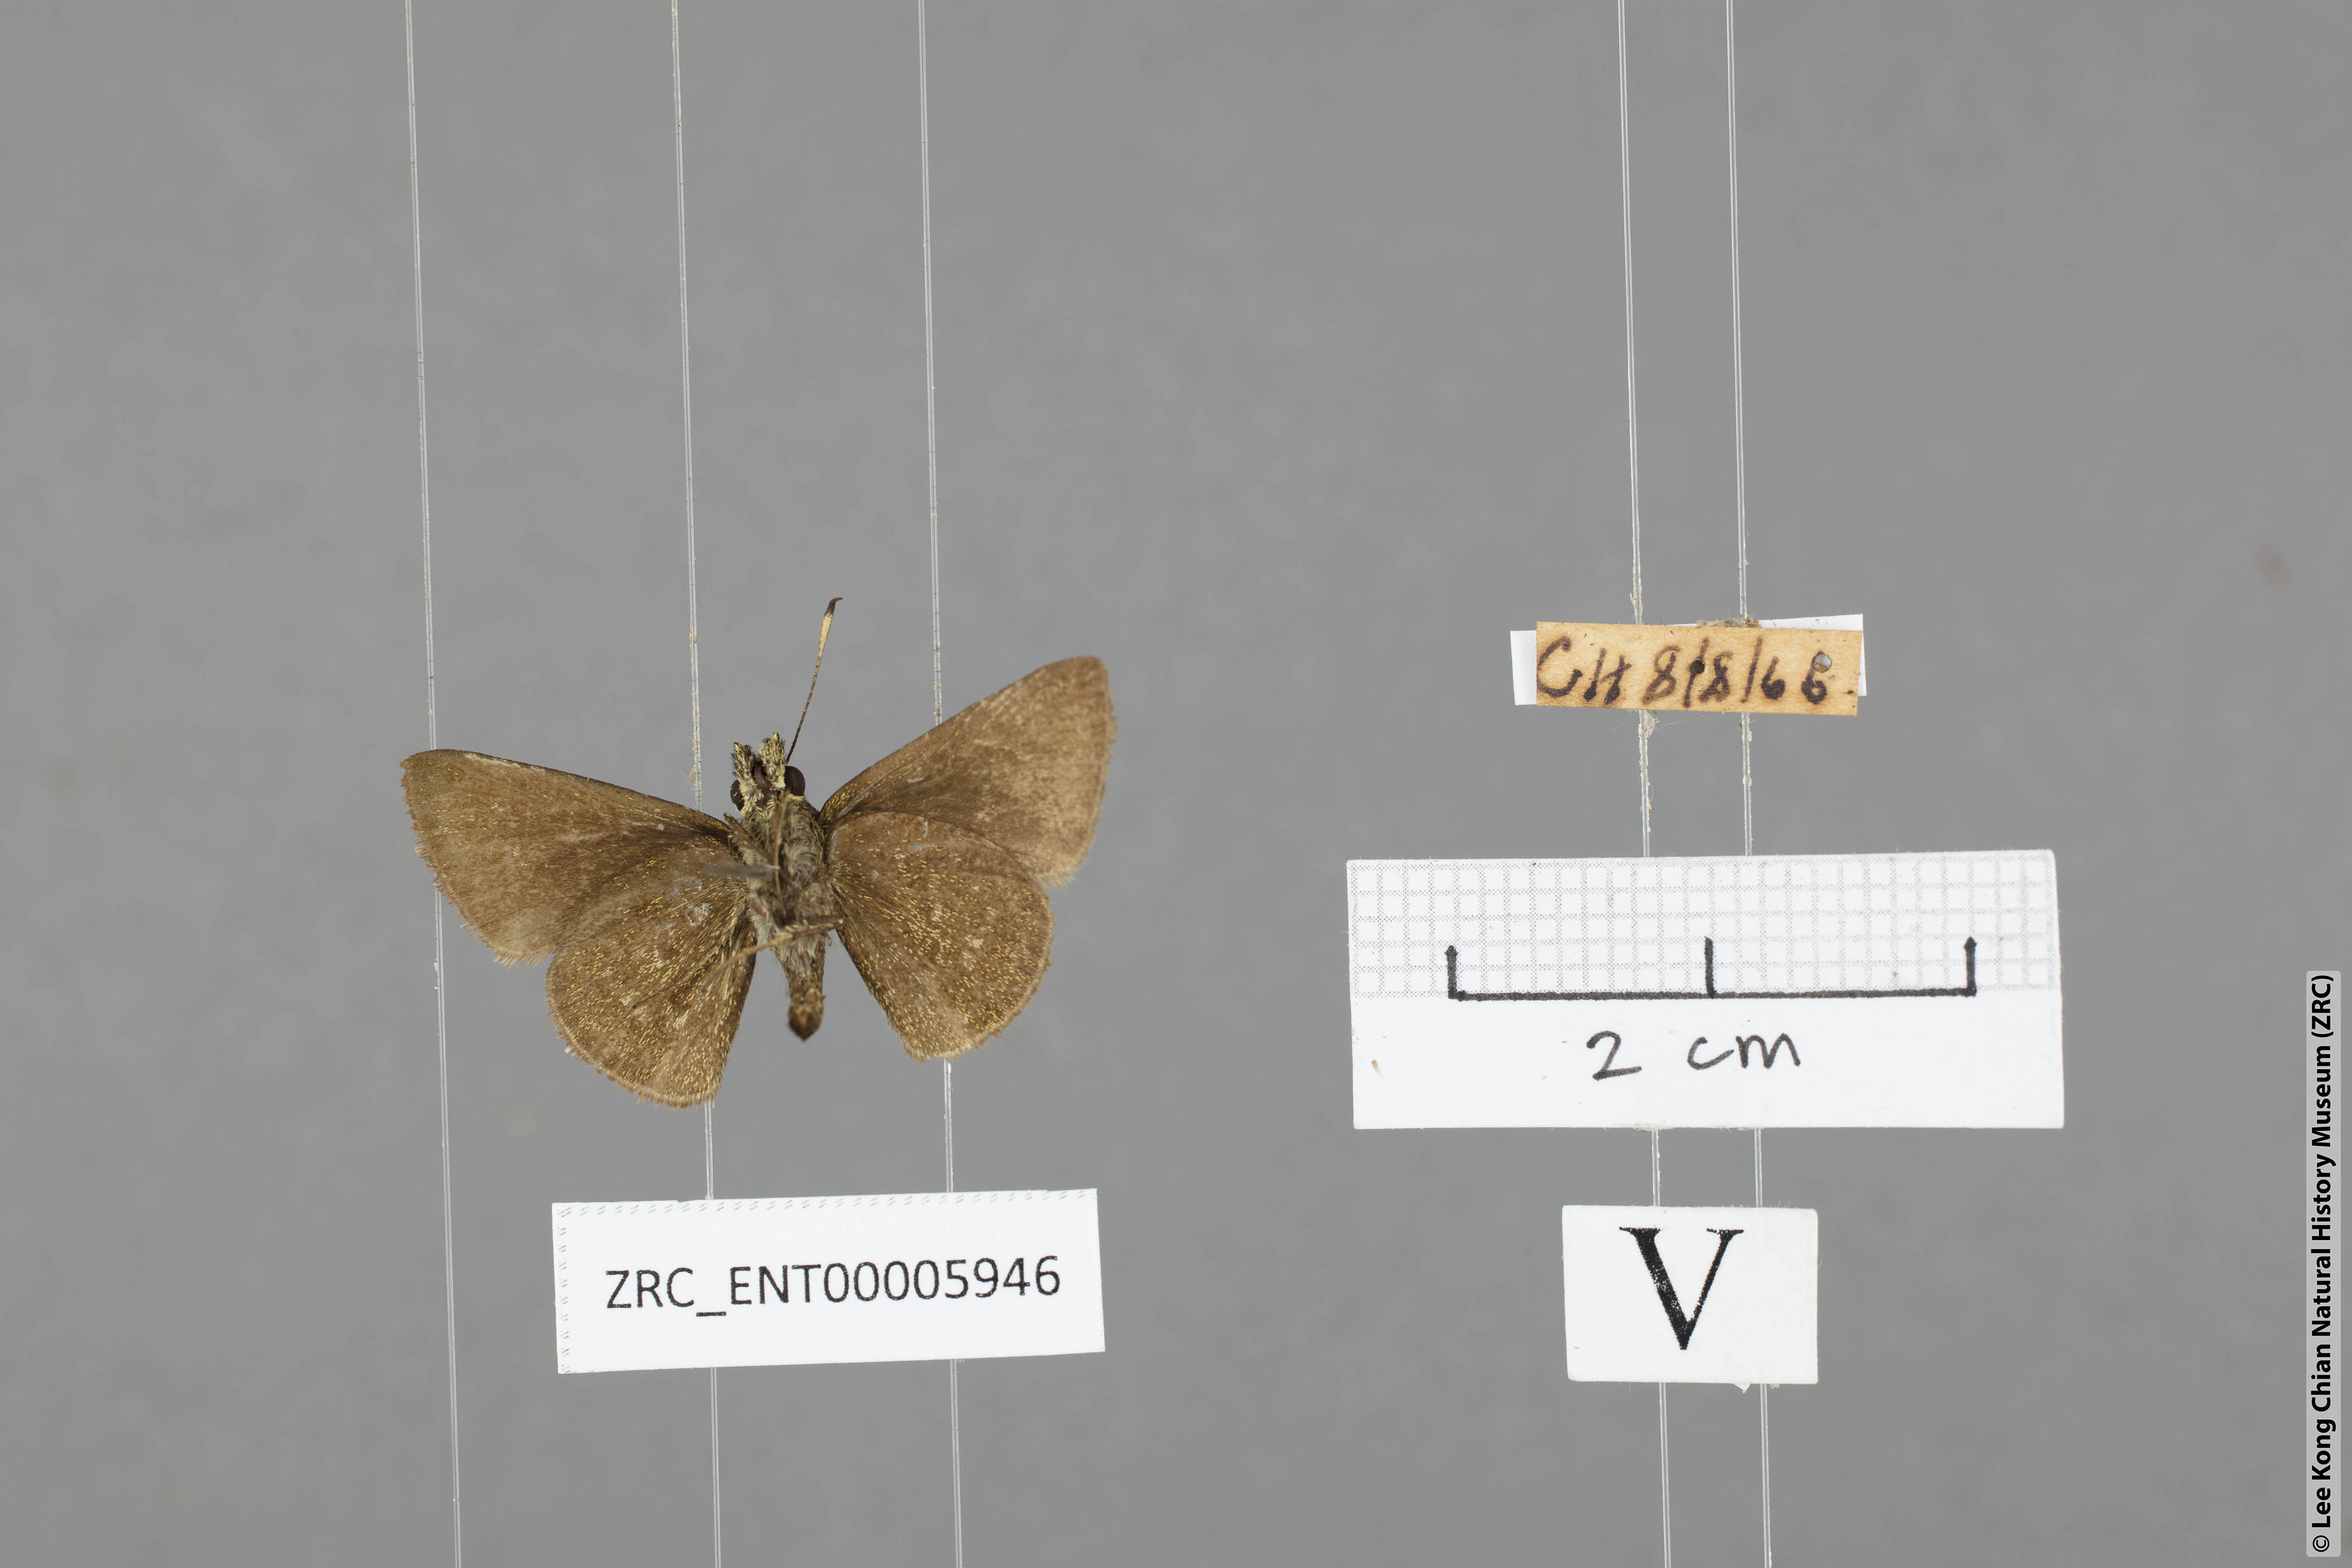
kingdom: Animalia
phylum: Arthropoda
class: Insecta
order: Lepidoptera
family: Hesperiidae
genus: Aeromachus
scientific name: Aeromachus jhora
